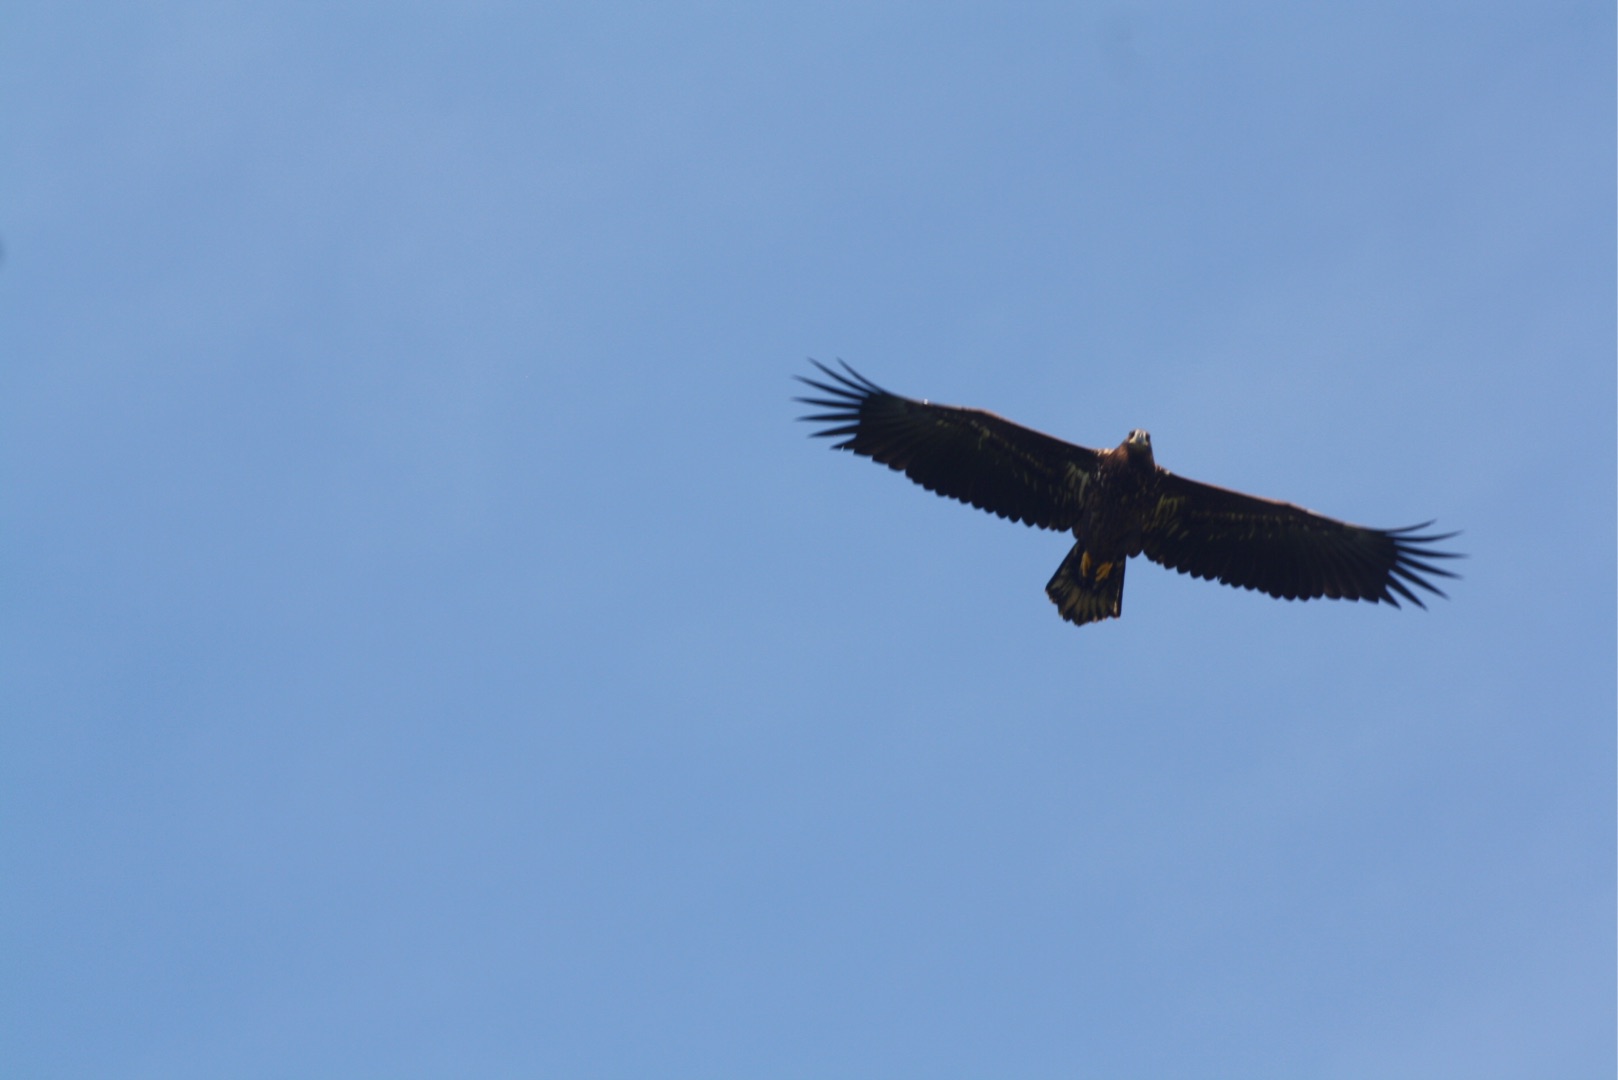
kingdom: Animalia
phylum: Chordata
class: Aves
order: Accipitriformes
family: Accipitridae
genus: Haliaeetus
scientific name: Haliaeetus albicilla
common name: Havørn
